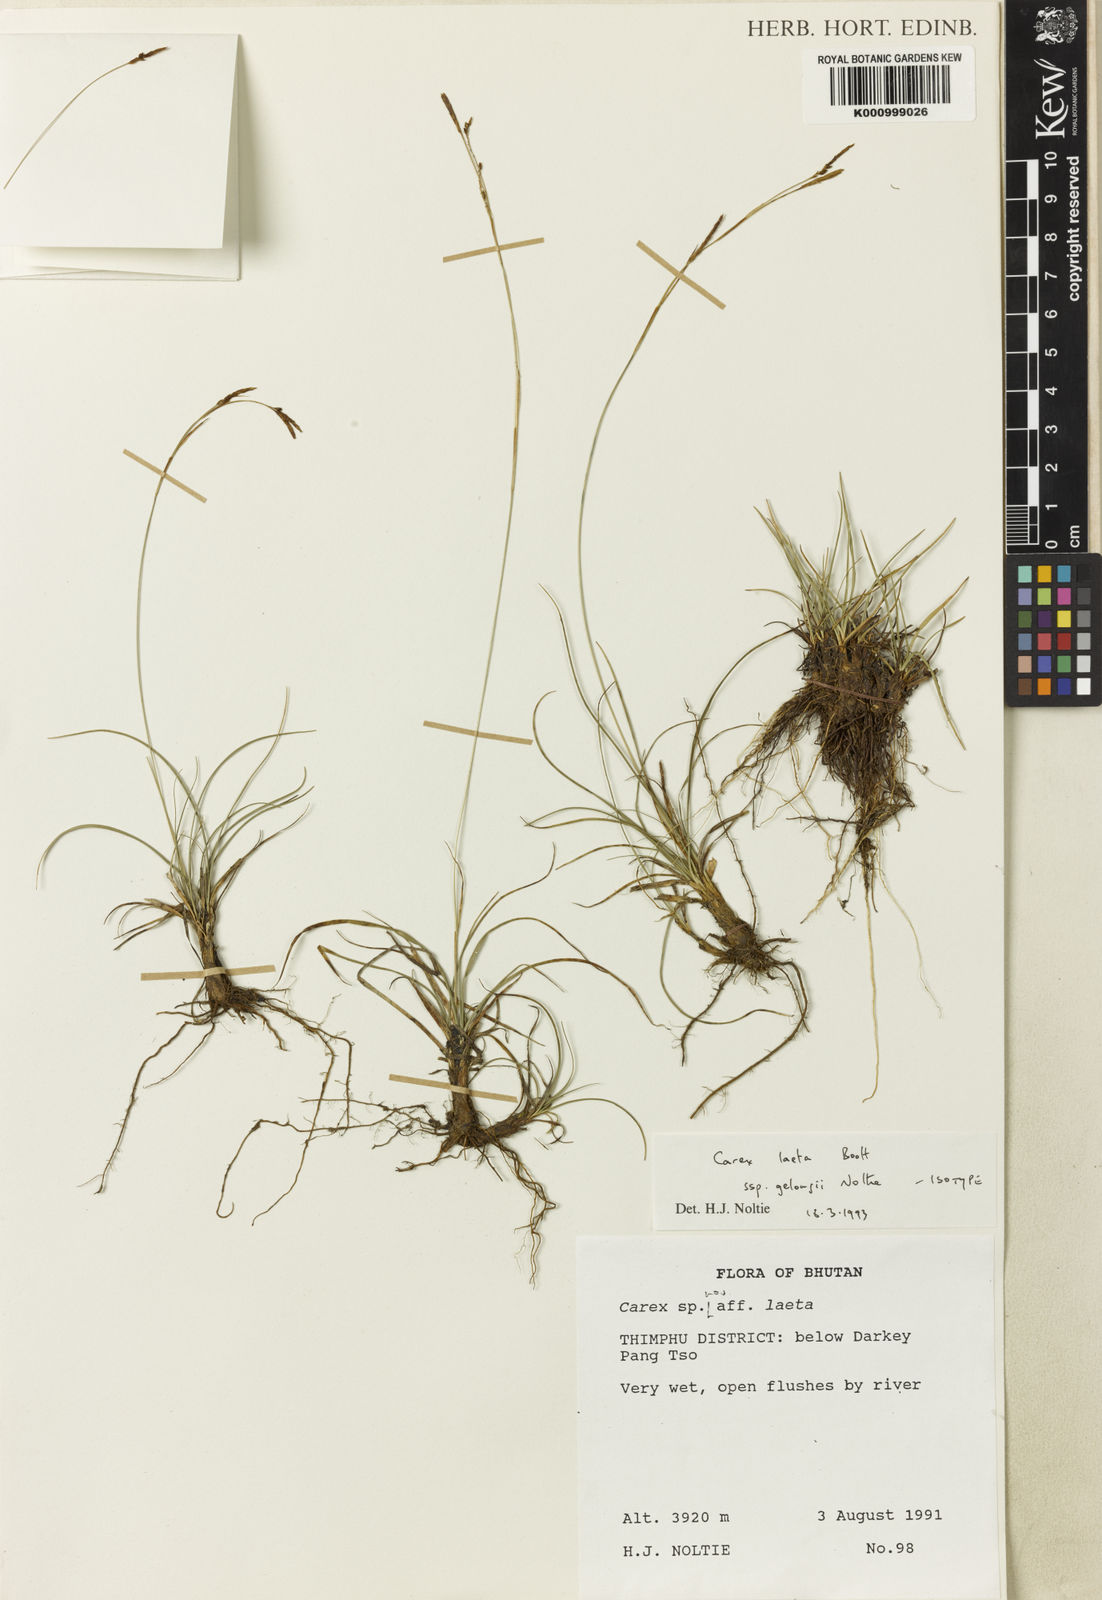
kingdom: Plantae
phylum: Tracheophyta
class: Liliopsida
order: Poales
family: Cyperaceae
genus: Carex
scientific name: Carex laeta
